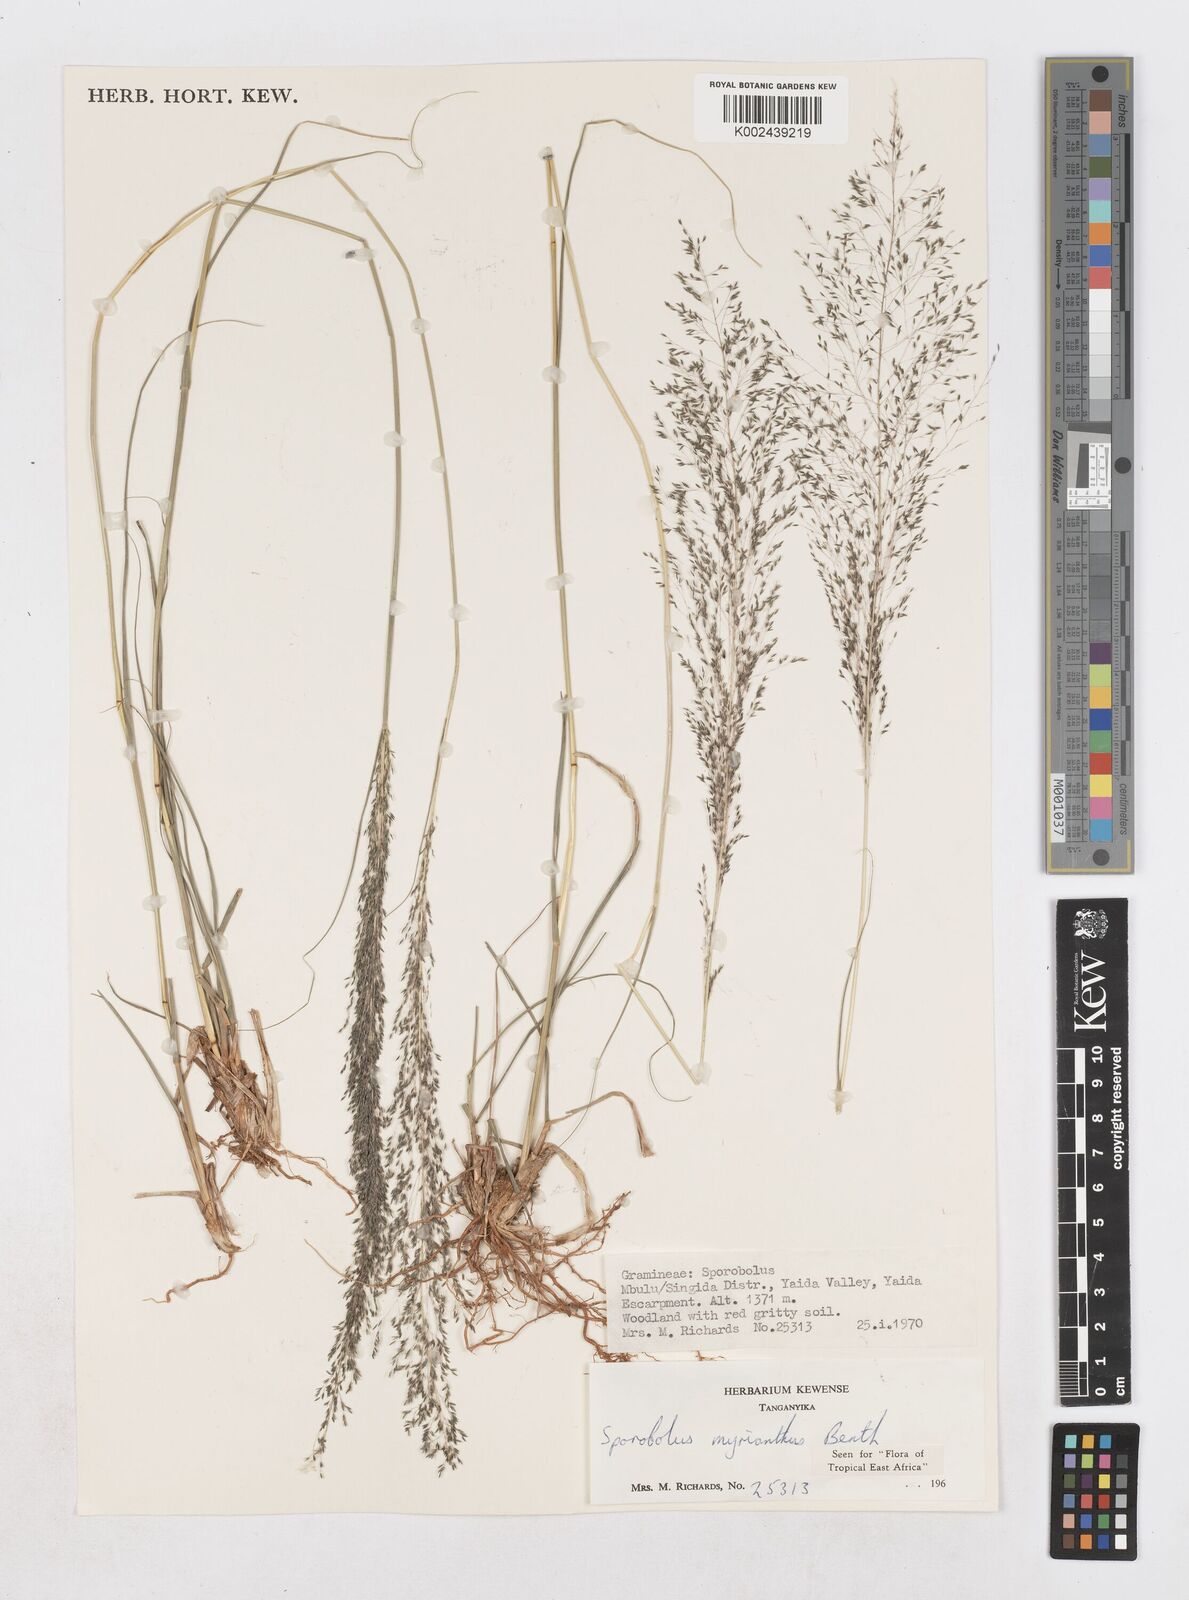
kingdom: Plantae
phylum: Tracheophyta
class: Liliopsida
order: Poales
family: Poaceae
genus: Sporobolus
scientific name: Sporobolus myrianthus
